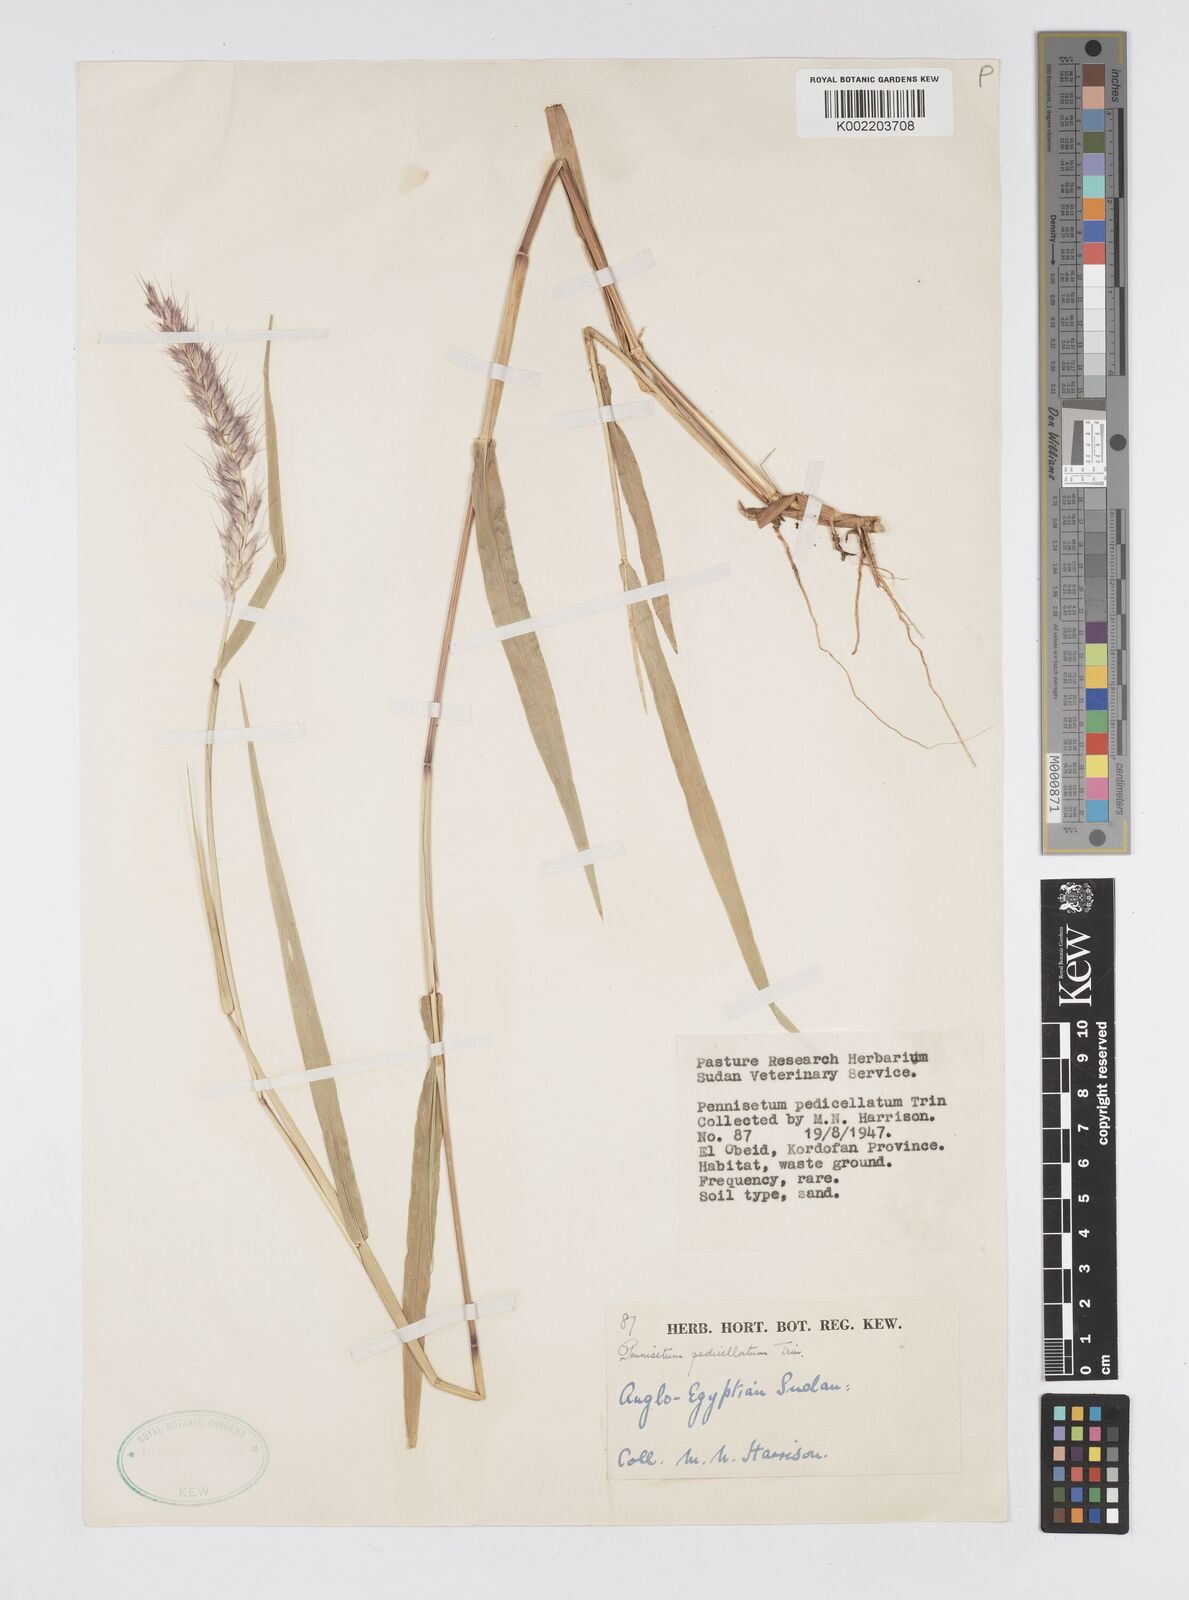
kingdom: Plantae
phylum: Tracheophyta
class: Liliopsida
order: Poales
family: Poaceae
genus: Cenchrus
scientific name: Cenchrus pedicellatus
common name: Hairy fountain grass
